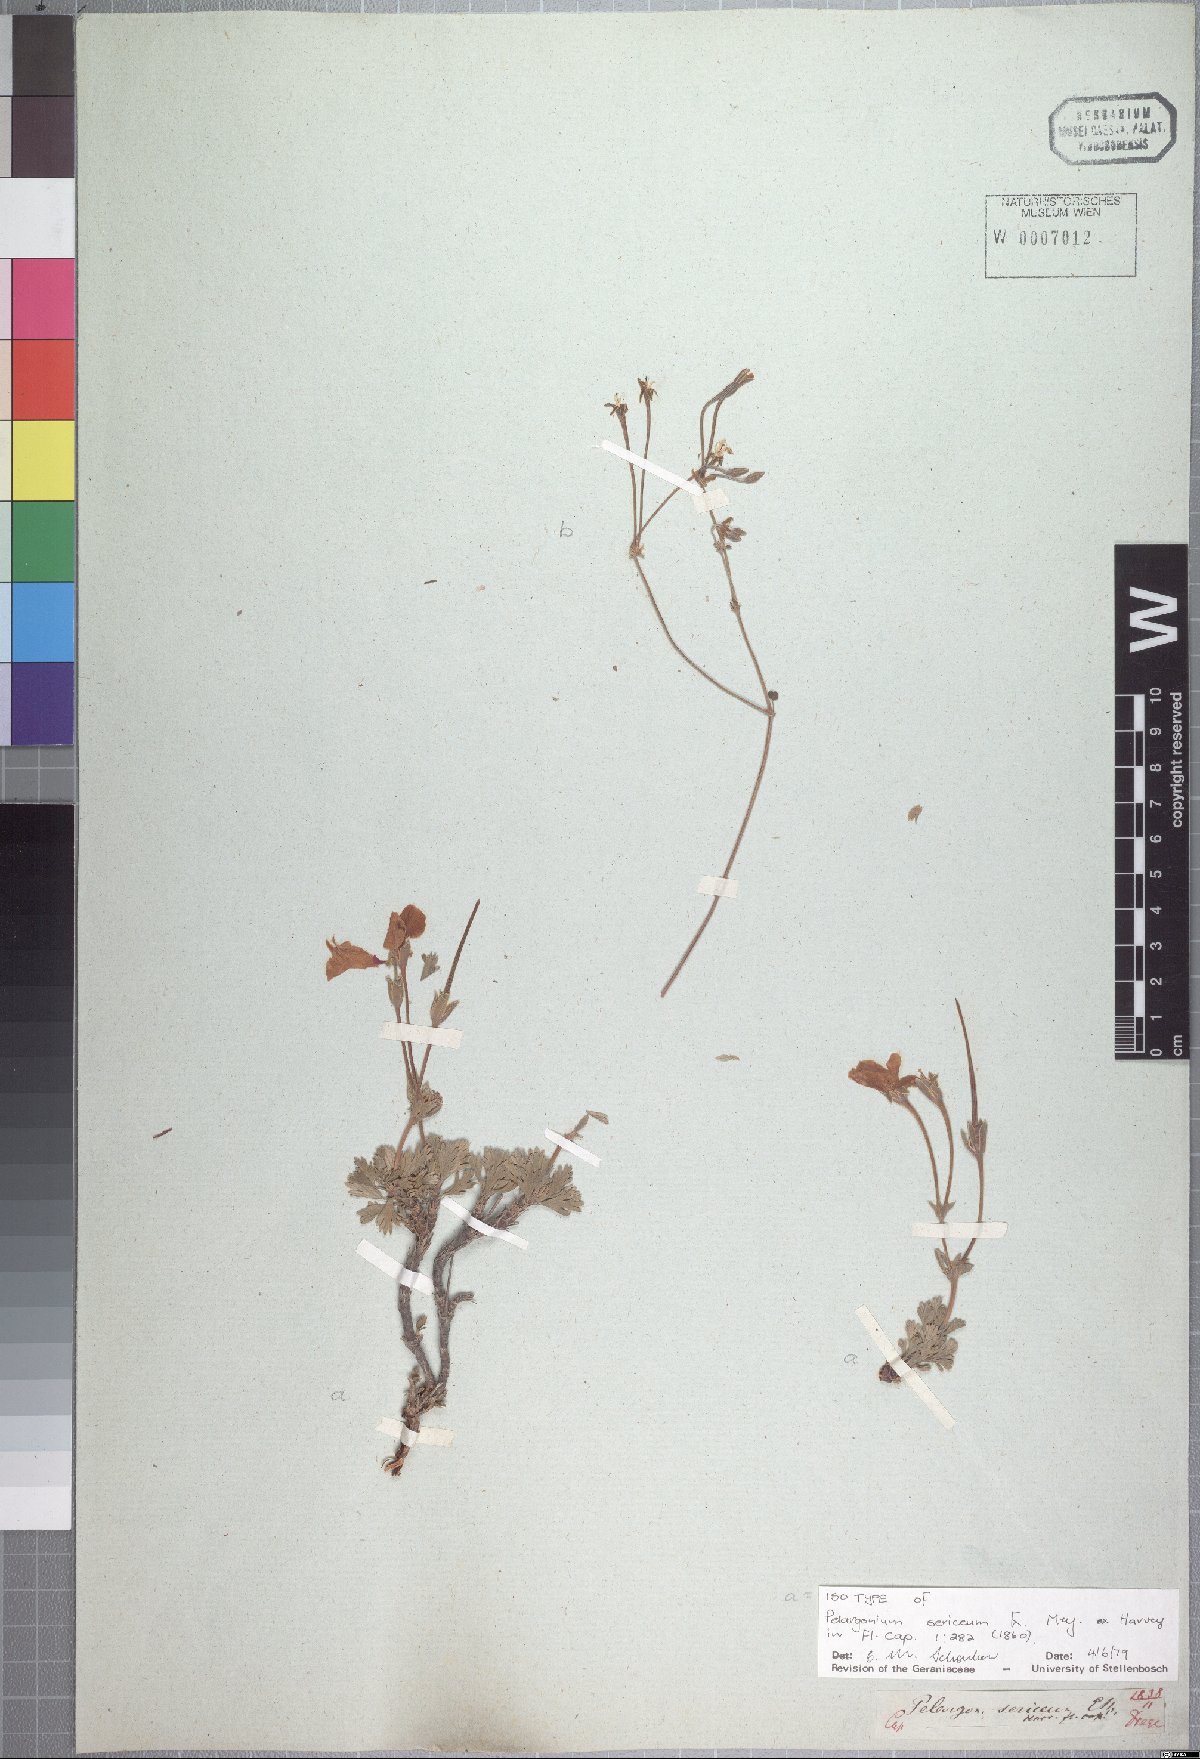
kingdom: Plantae
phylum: Tracheophyta
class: Magnoliopsida
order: Geraniales
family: Geraniaceae
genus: Pelargonium
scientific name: Pelargonium sericifolium
